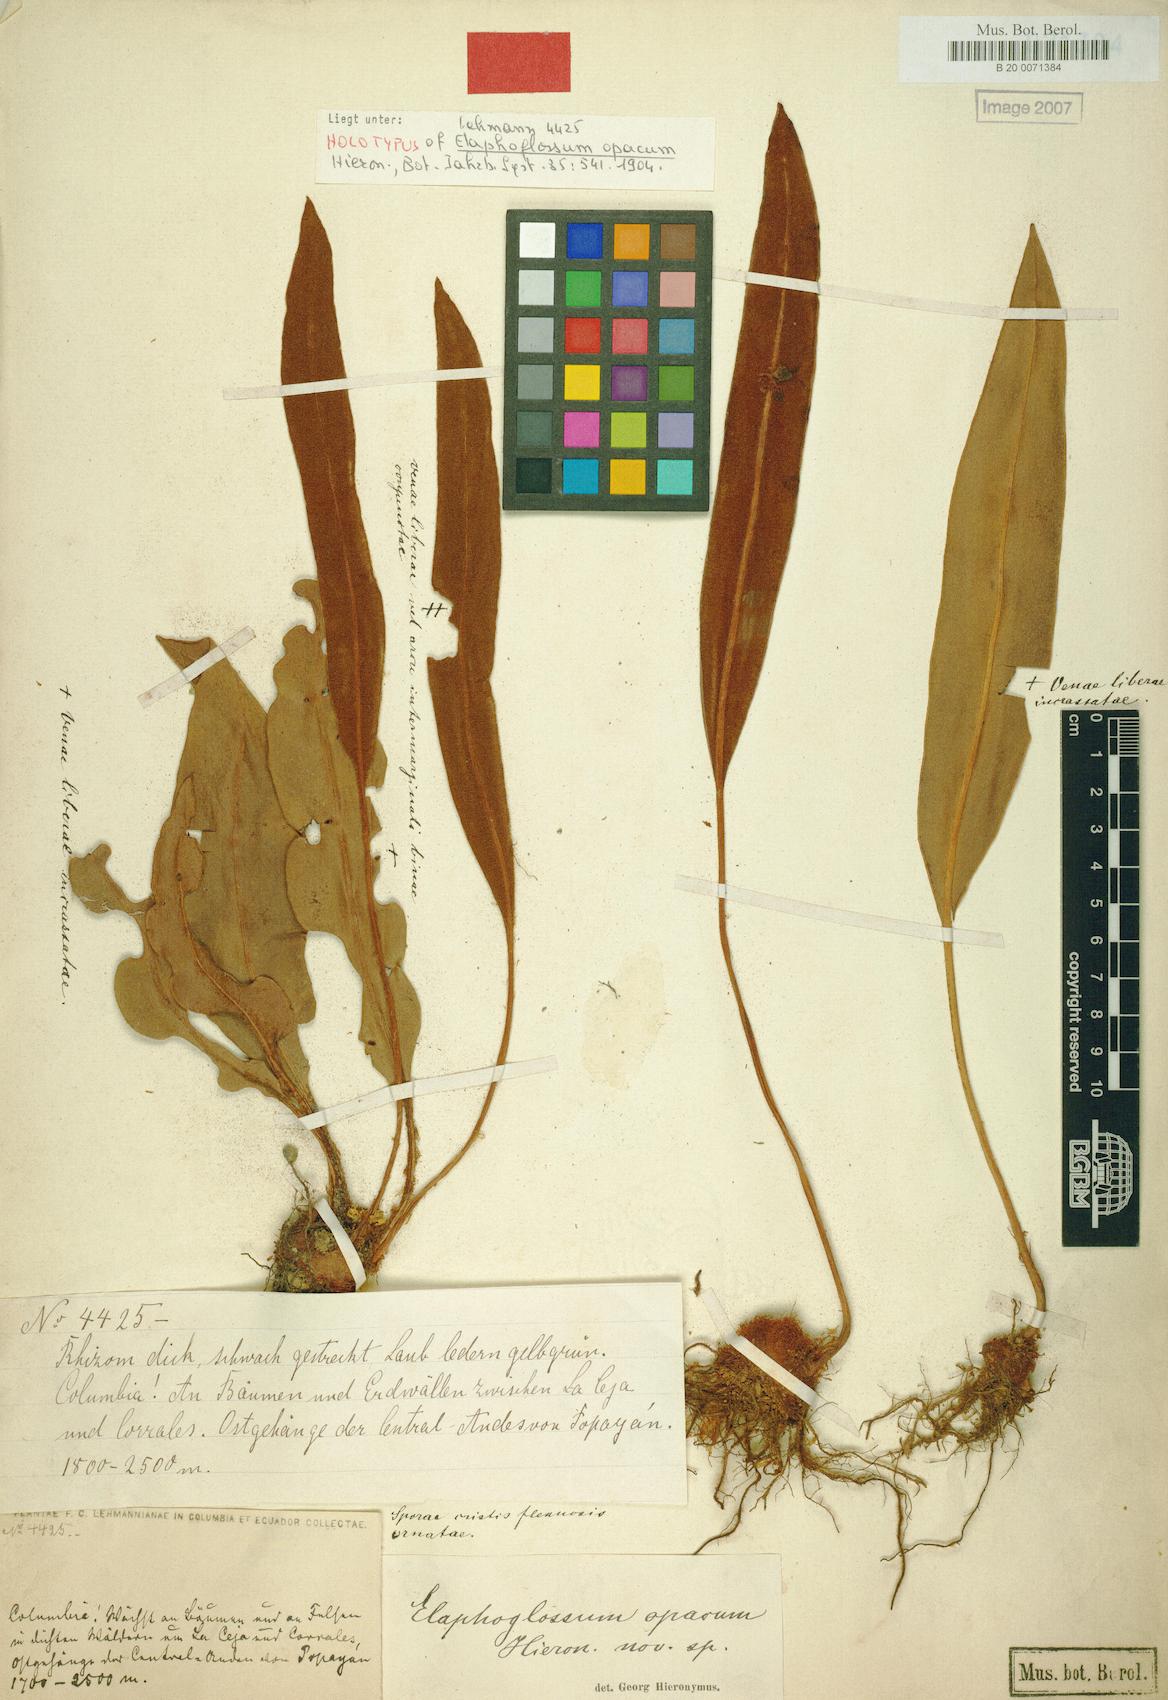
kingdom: Plantae
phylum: Tracheophyta
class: Polypodiopsida
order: Polypodiales
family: Dryopteridaceae
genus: Elaphoglossum
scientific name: Elaphoglossum opacum
